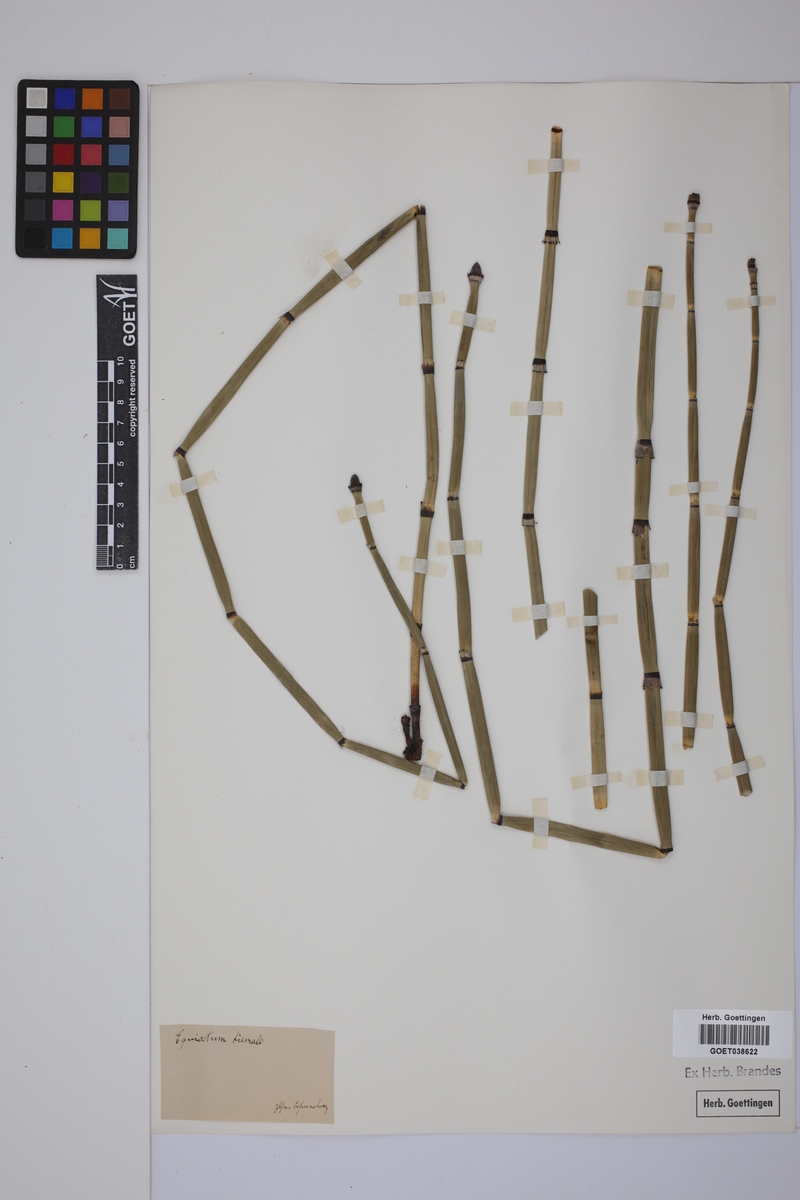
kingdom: Plantae
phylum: Tracheophyta
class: Polypodiopsida
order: Equisetales
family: Equisetaceae
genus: Equisetum
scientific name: Equisetum hyemale
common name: Rough horsetail
